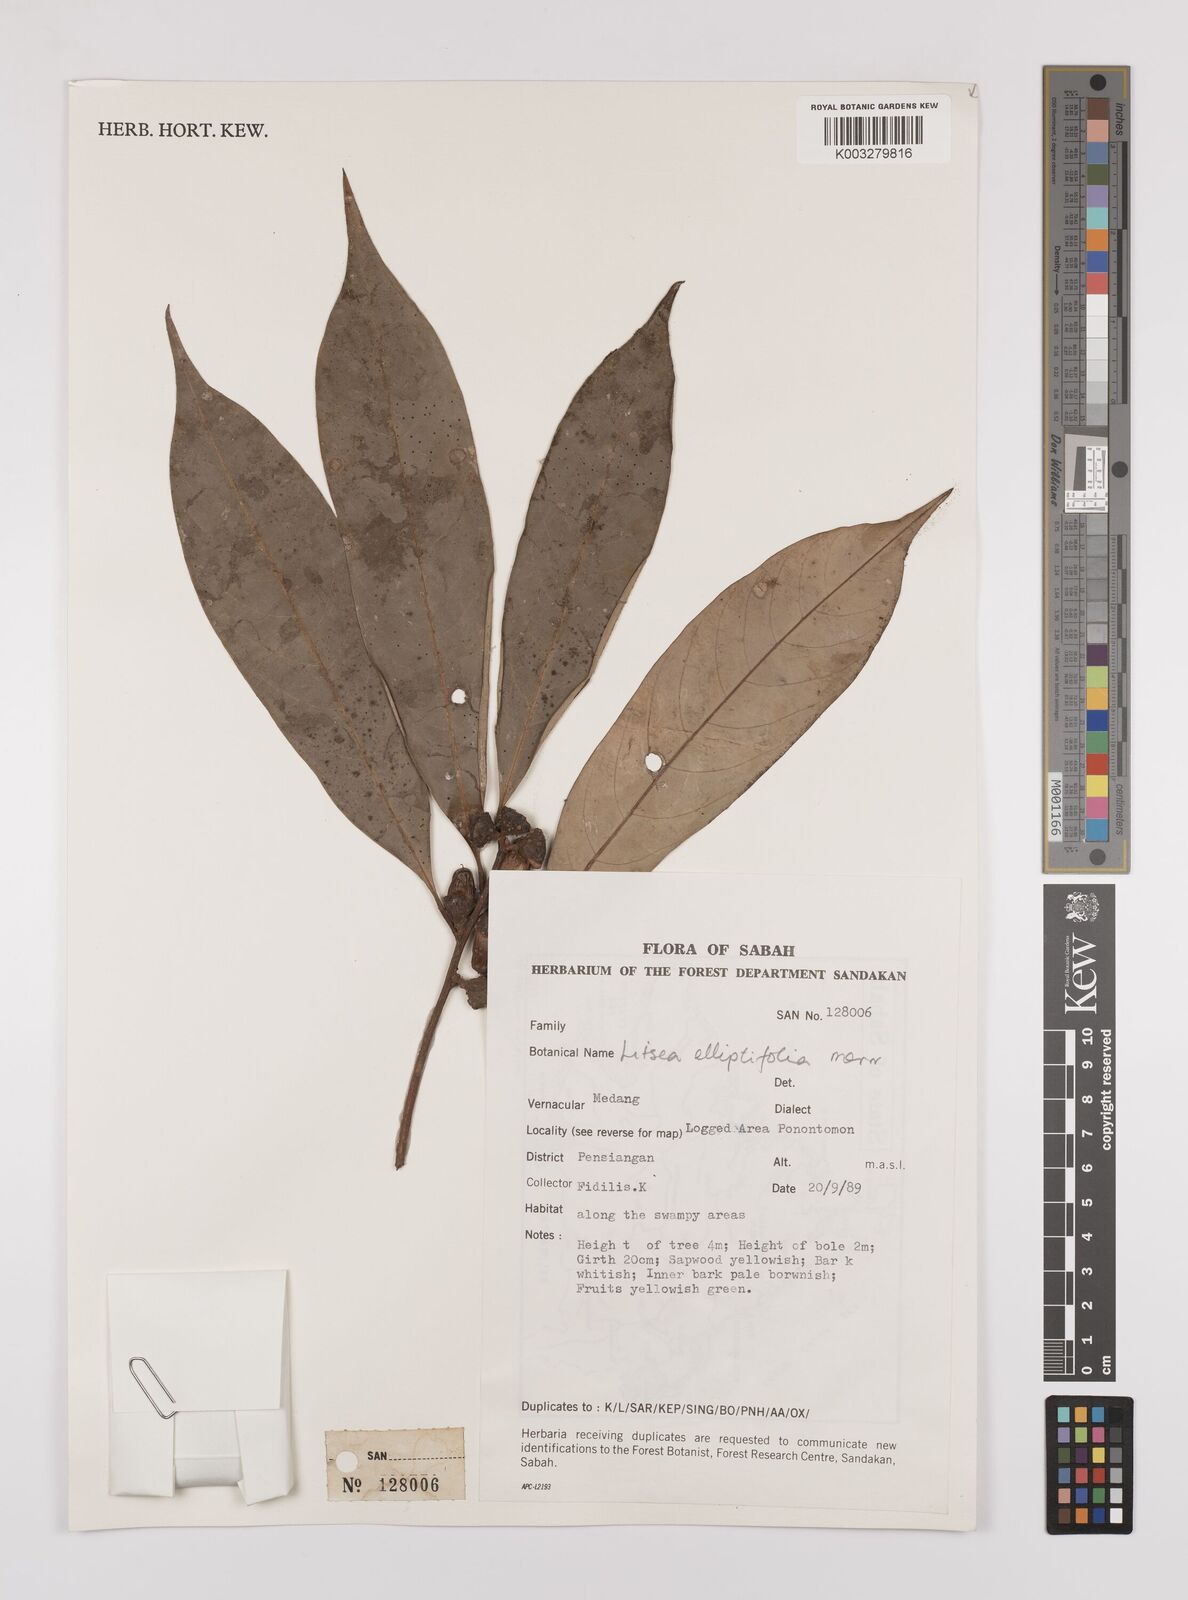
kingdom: Plantae
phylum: Tracheophyta
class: Magnoliopsida
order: Laurales
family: Lauraceae
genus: Litsea
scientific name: Litsea
